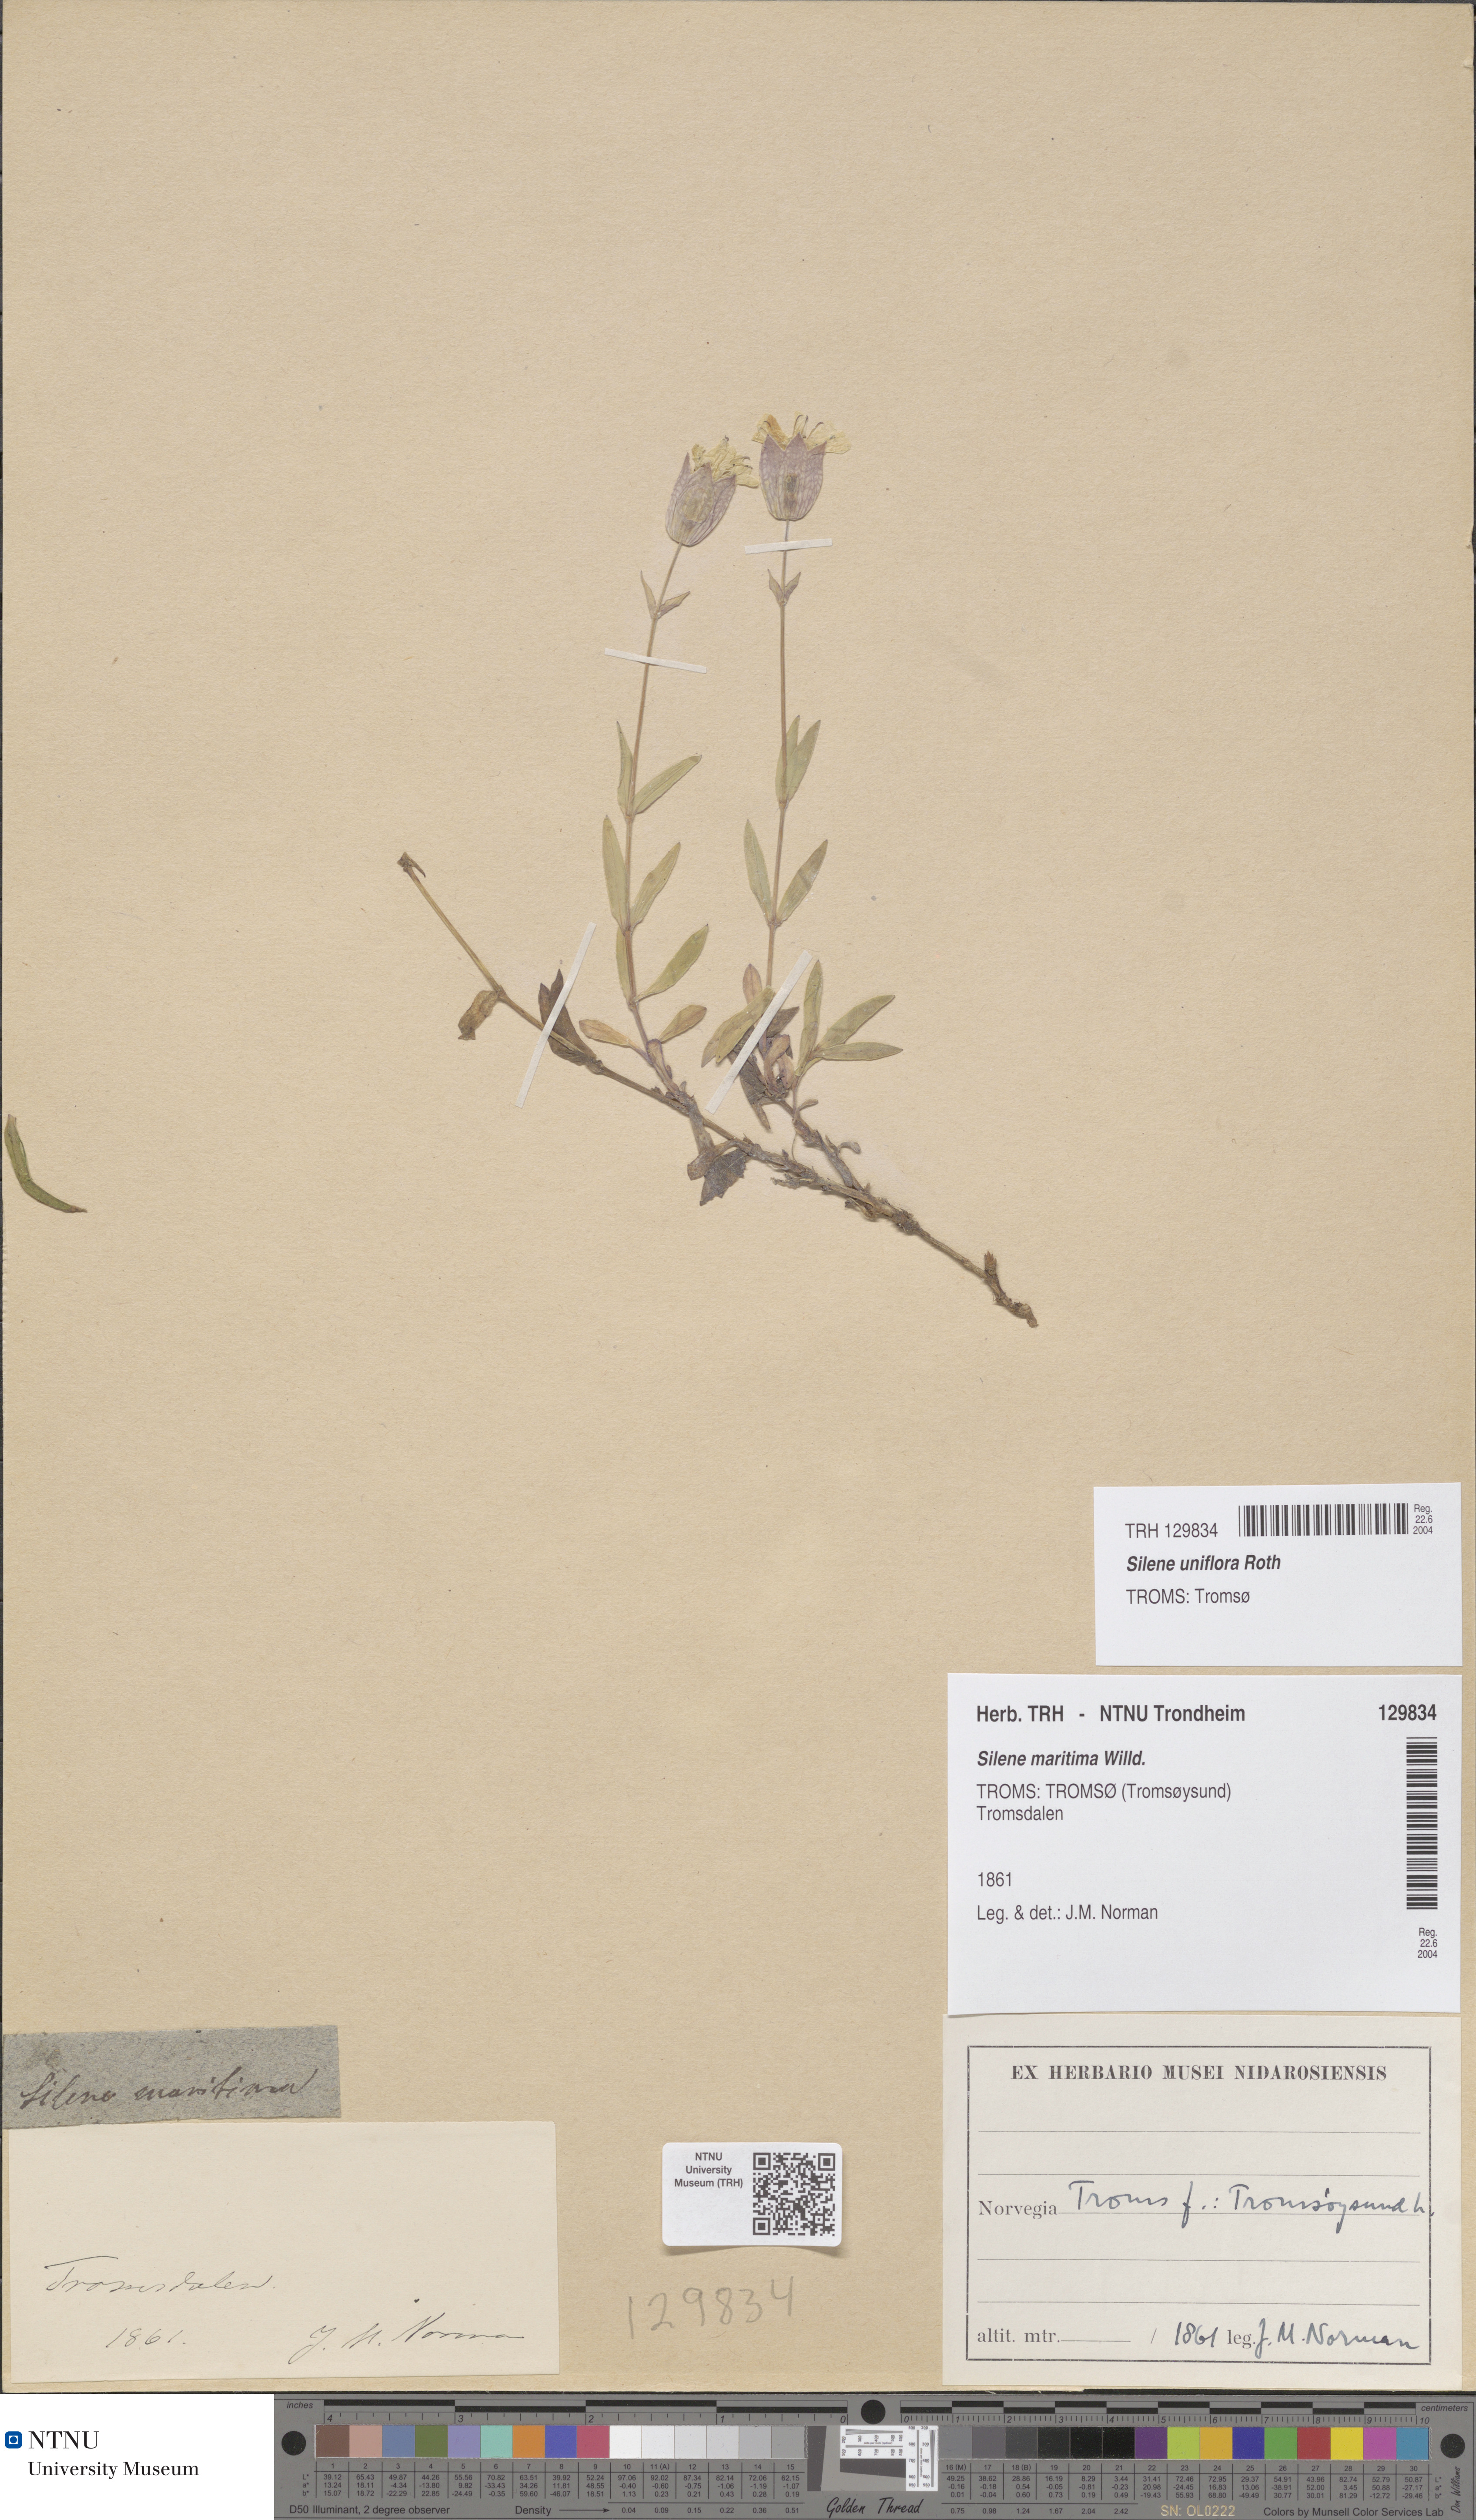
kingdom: Plantae
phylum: Tracheophyta
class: Magnoliopsida
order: Caryophyllales
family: Caryophyllaceae
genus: Silene
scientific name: Silene uniflora
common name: Sea campion
